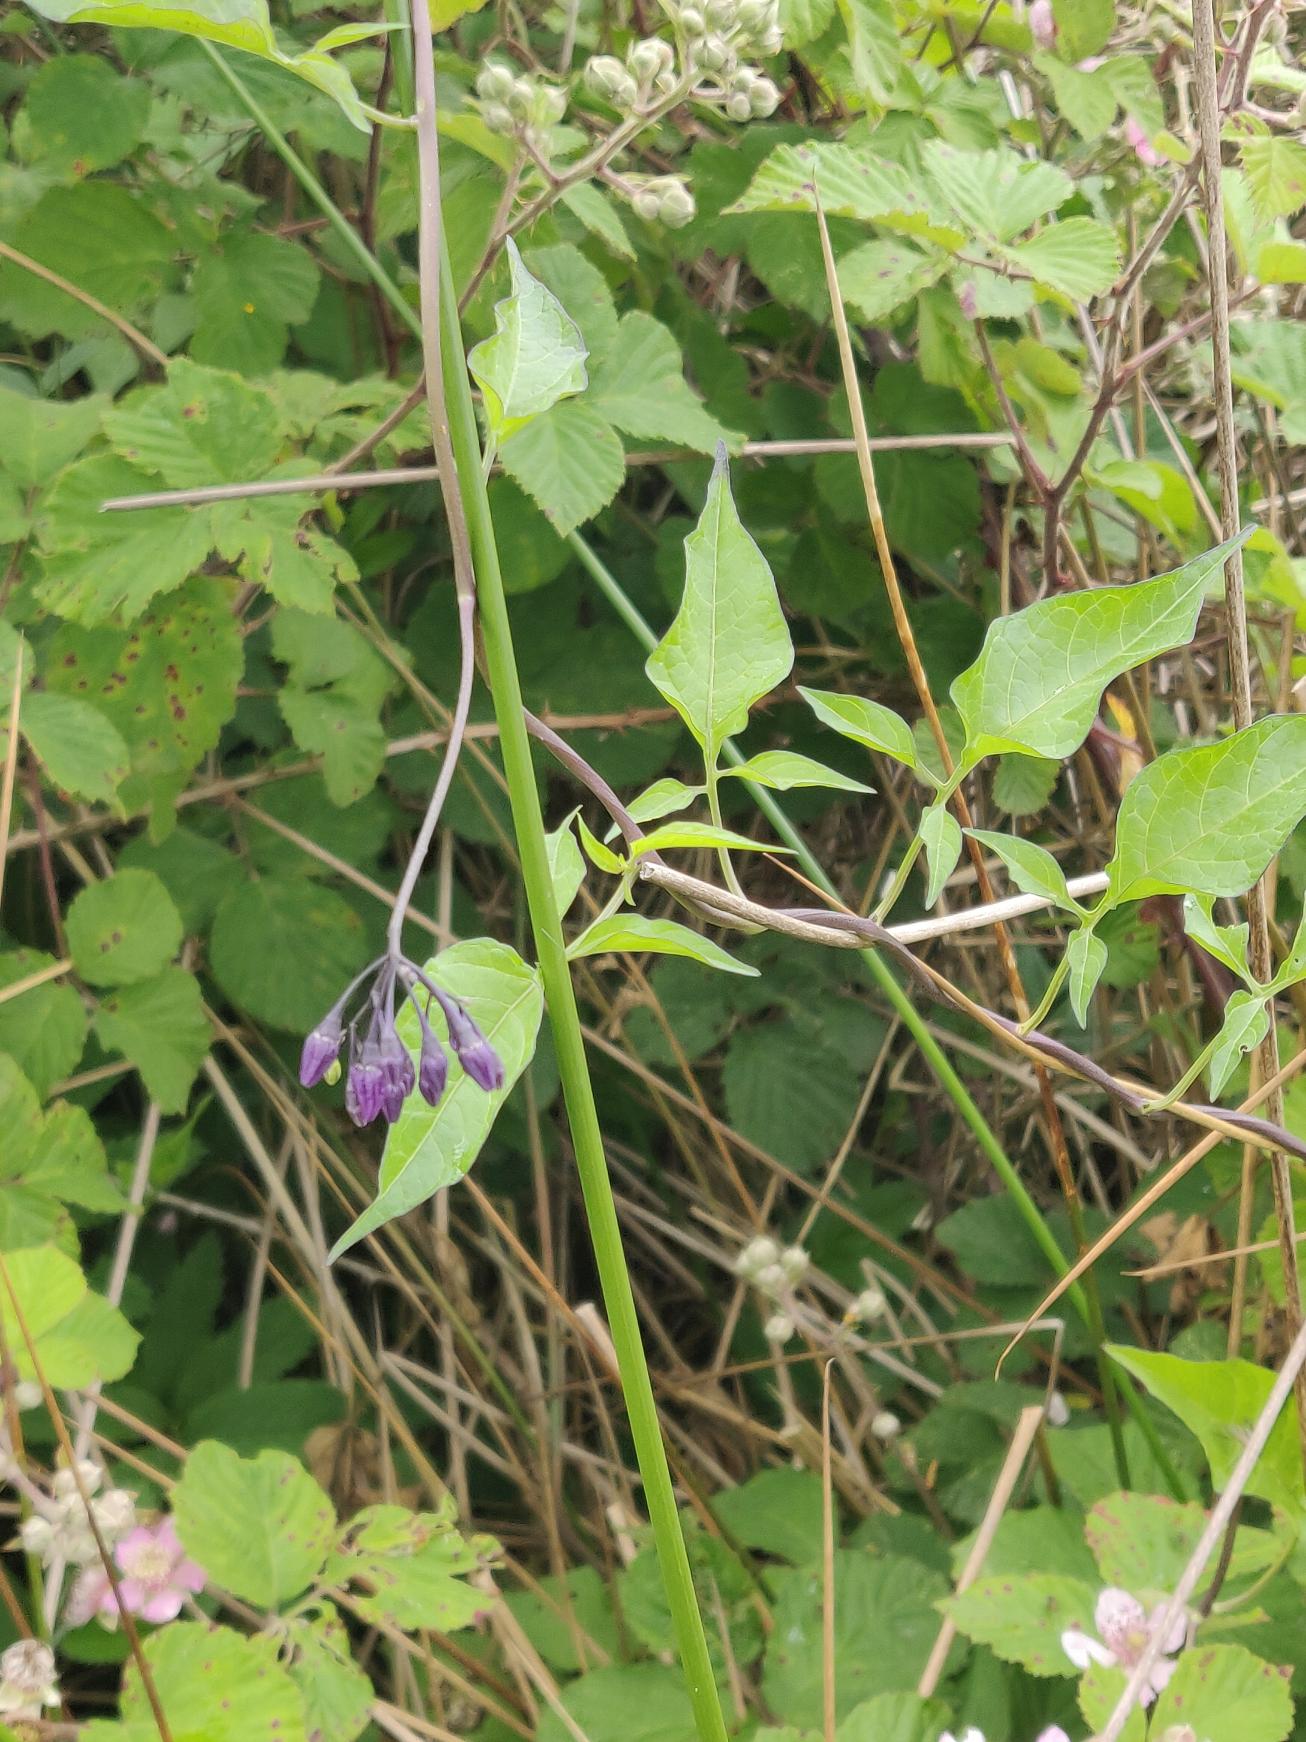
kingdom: Plantae
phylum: Tracheophyta
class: Magnoliopsida
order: Solanales
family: Solanaceae
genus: Solanum
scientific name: Solanum dulcamara
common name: Bittersød natskygge
